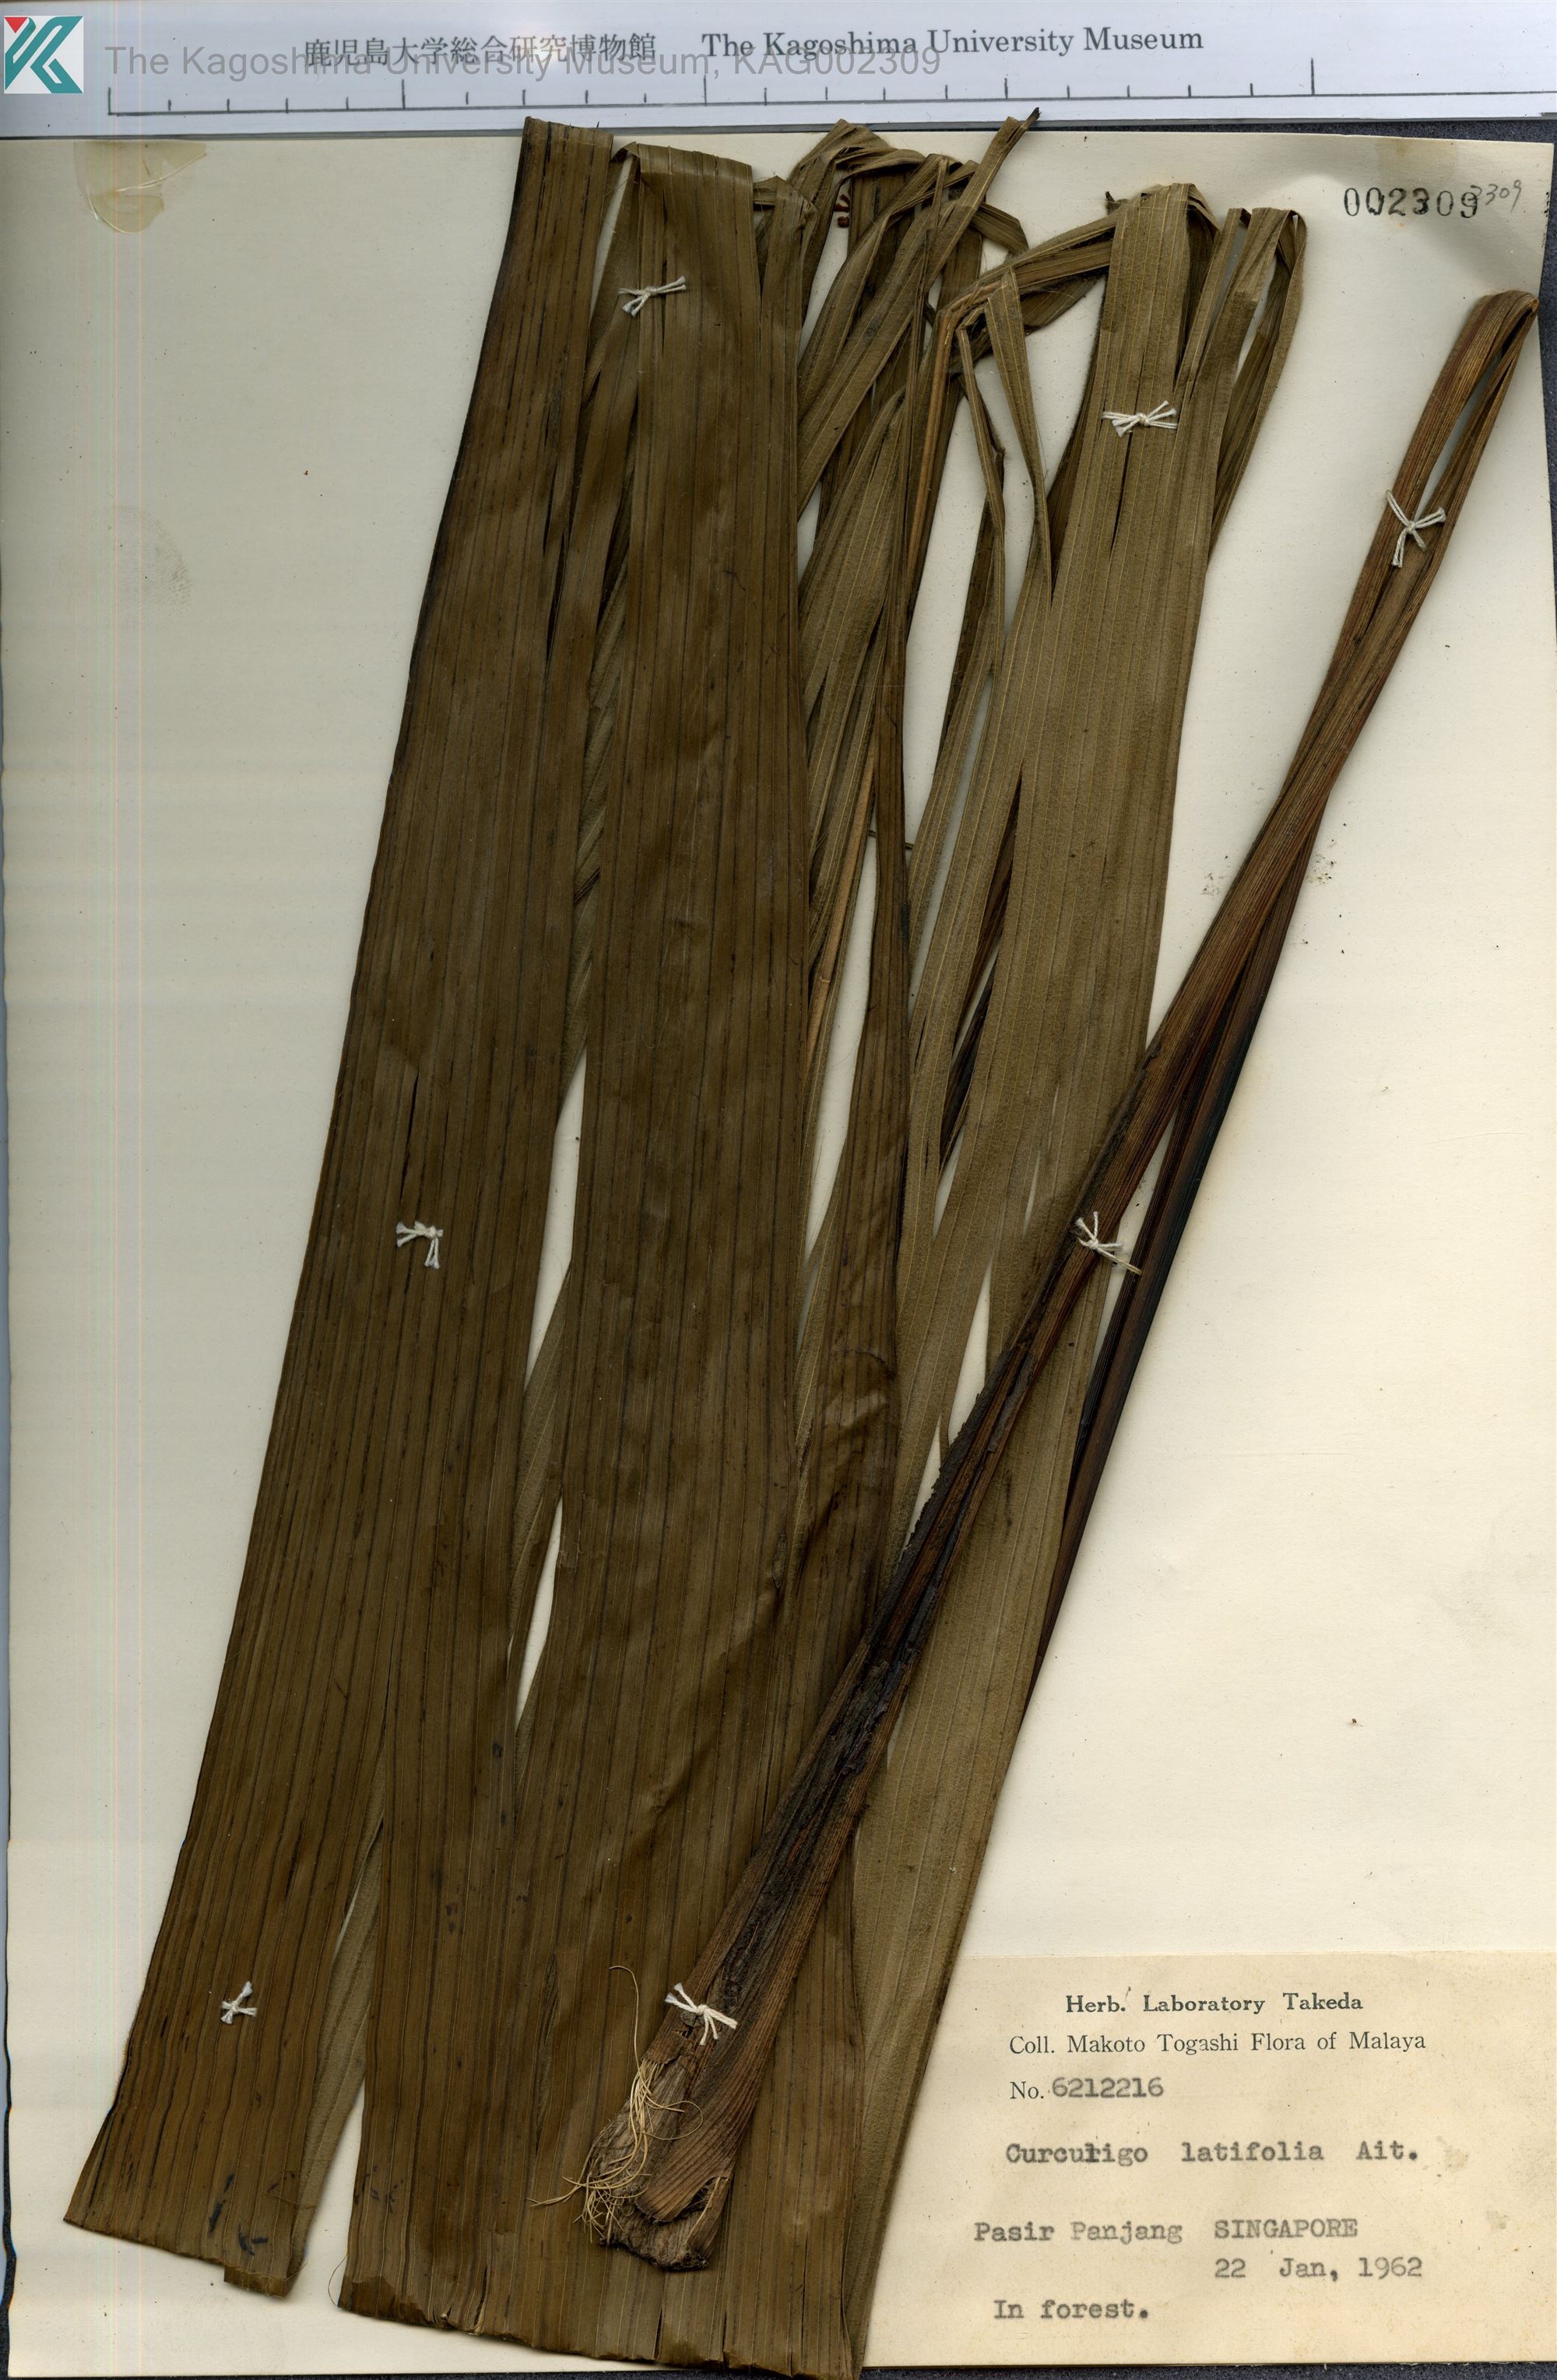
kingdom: Plantae
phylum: Tracheophyta
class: Liliopsida
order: Asparagales
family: Hypoxidaceae
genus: Curculigo
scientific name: Curculigo latifolia
